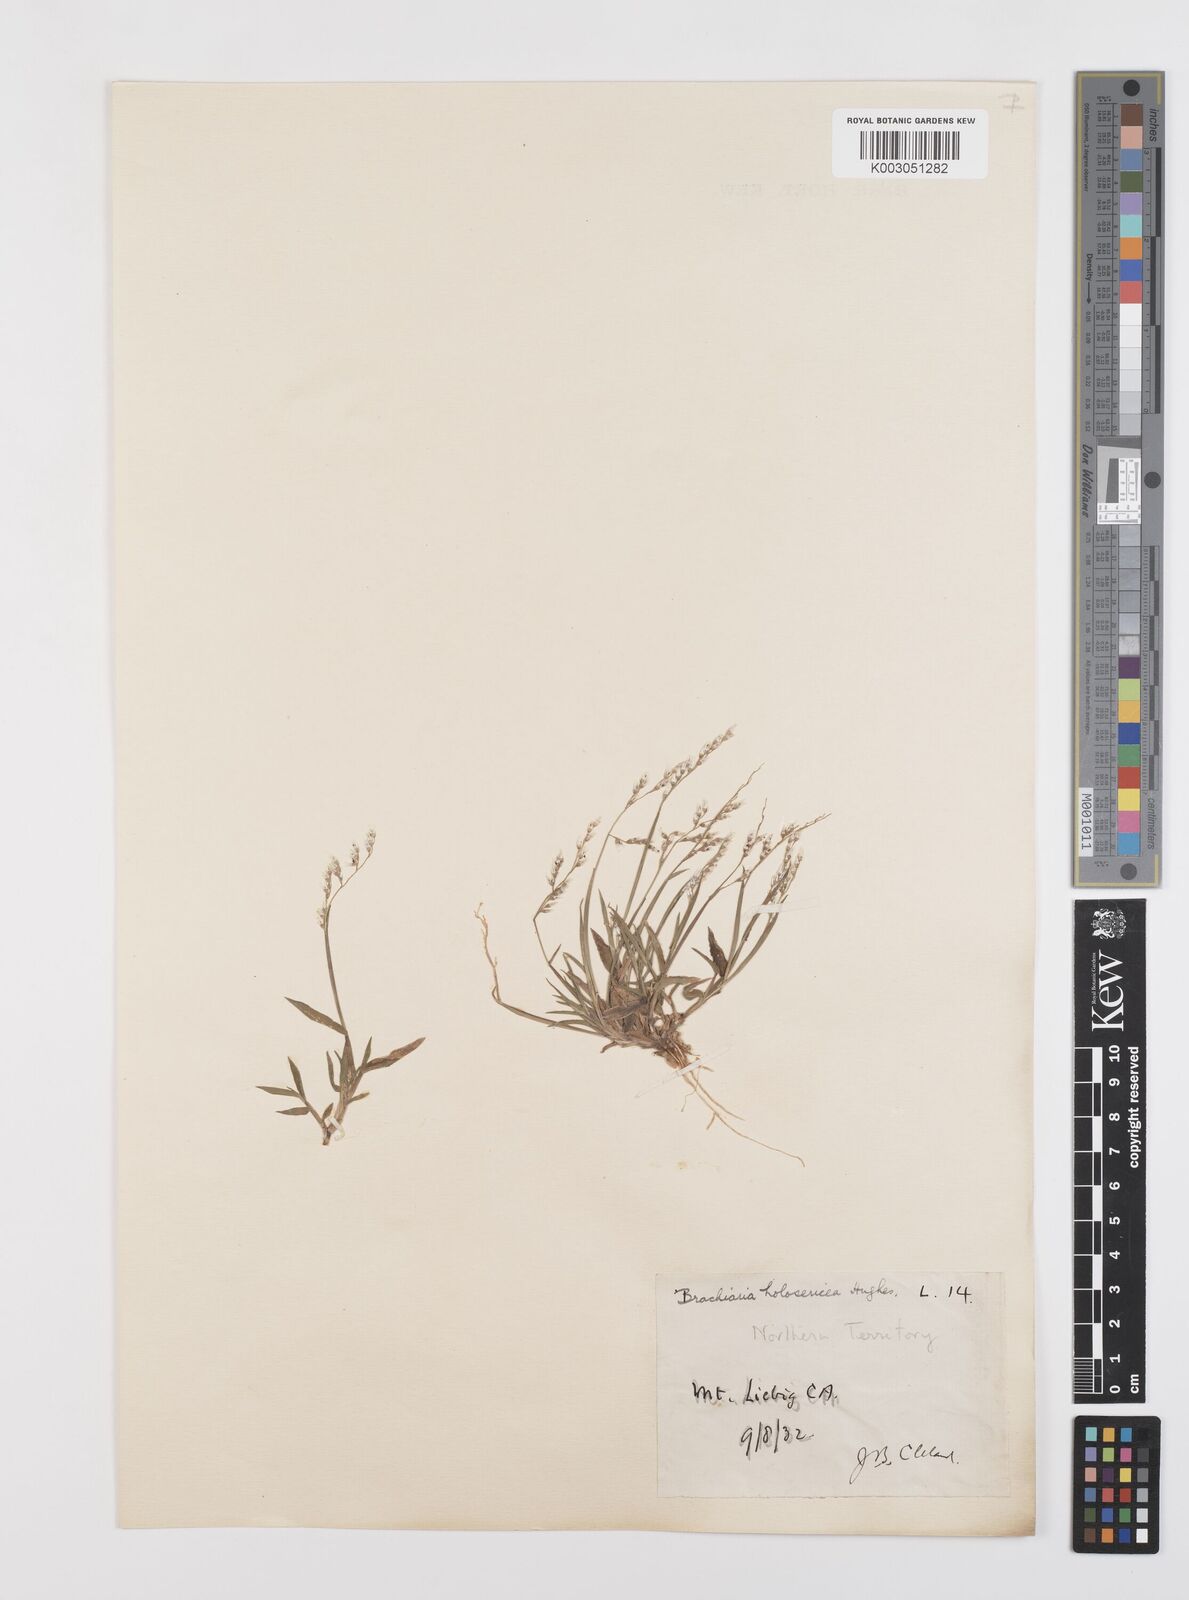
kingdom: Plantae
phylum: Tracheophyta
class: Liliopsida
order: Poales
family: Poaceae
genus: Urochloa
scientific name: Urochloa holosericea
